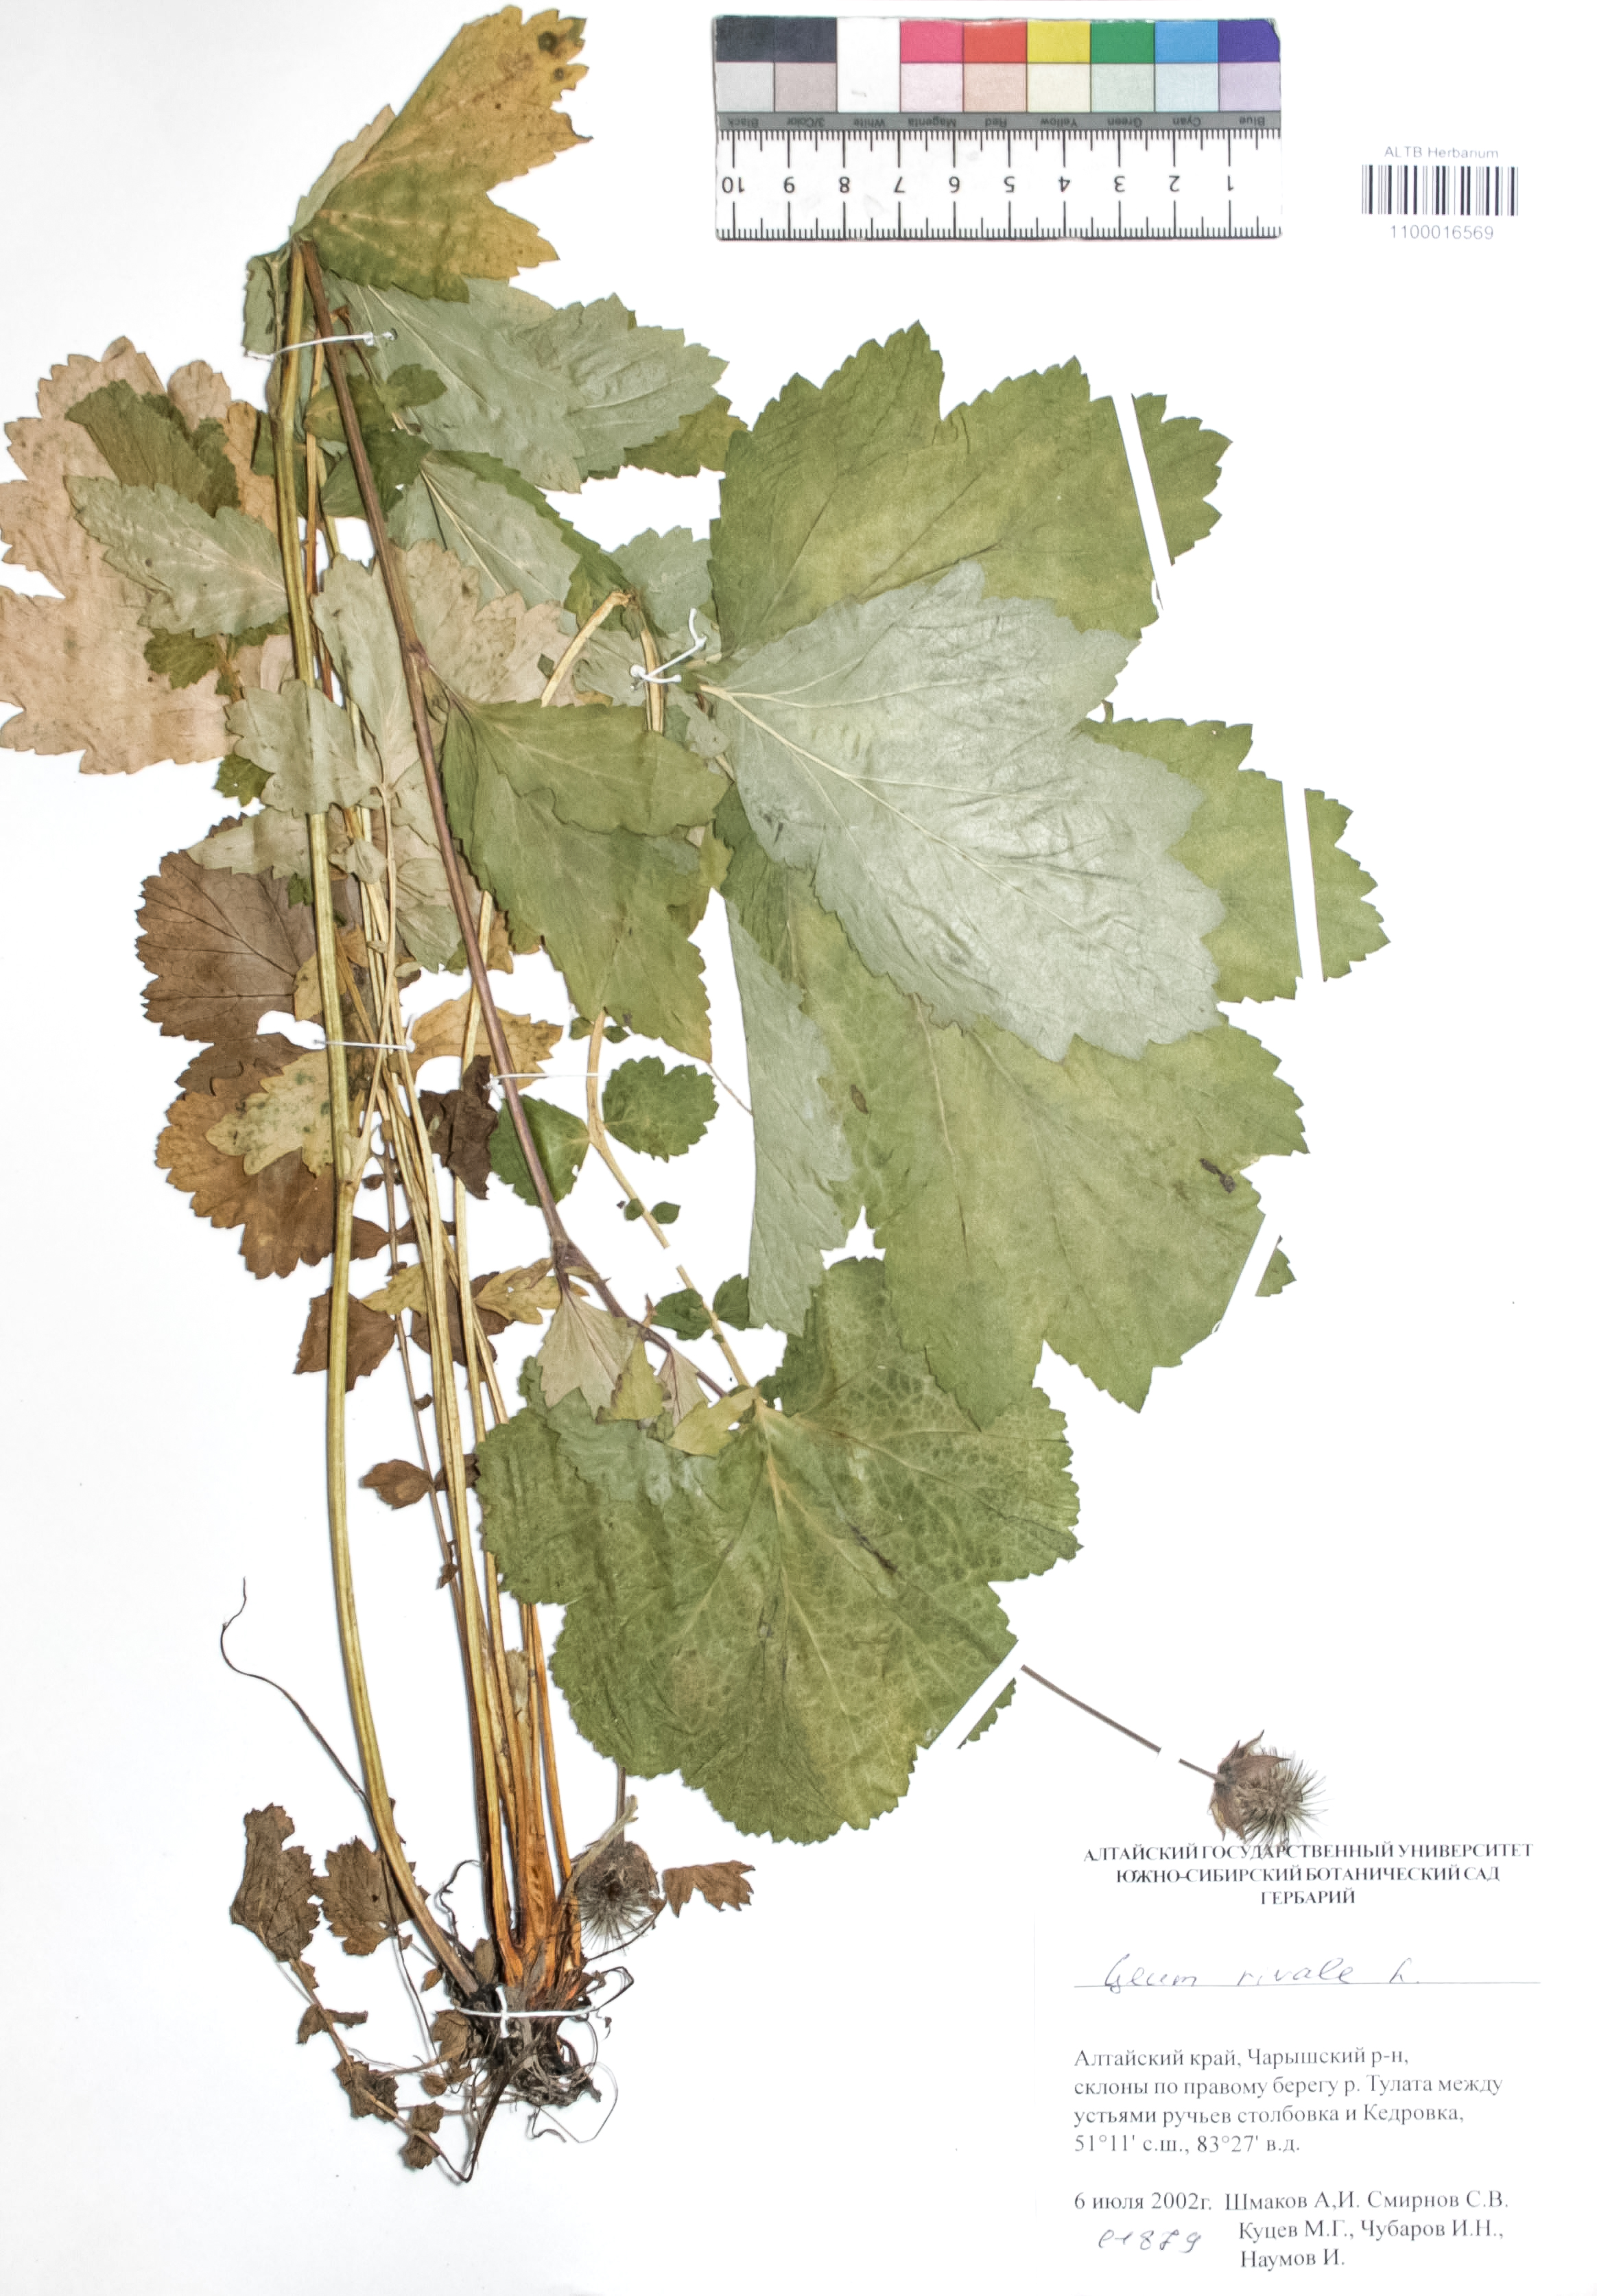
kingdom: Plantae
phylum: Tracheophyta
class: Magnoliopsida
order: Rosales
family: Rosaceae
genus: Geum
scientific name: Geum rivale
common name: Water avens
